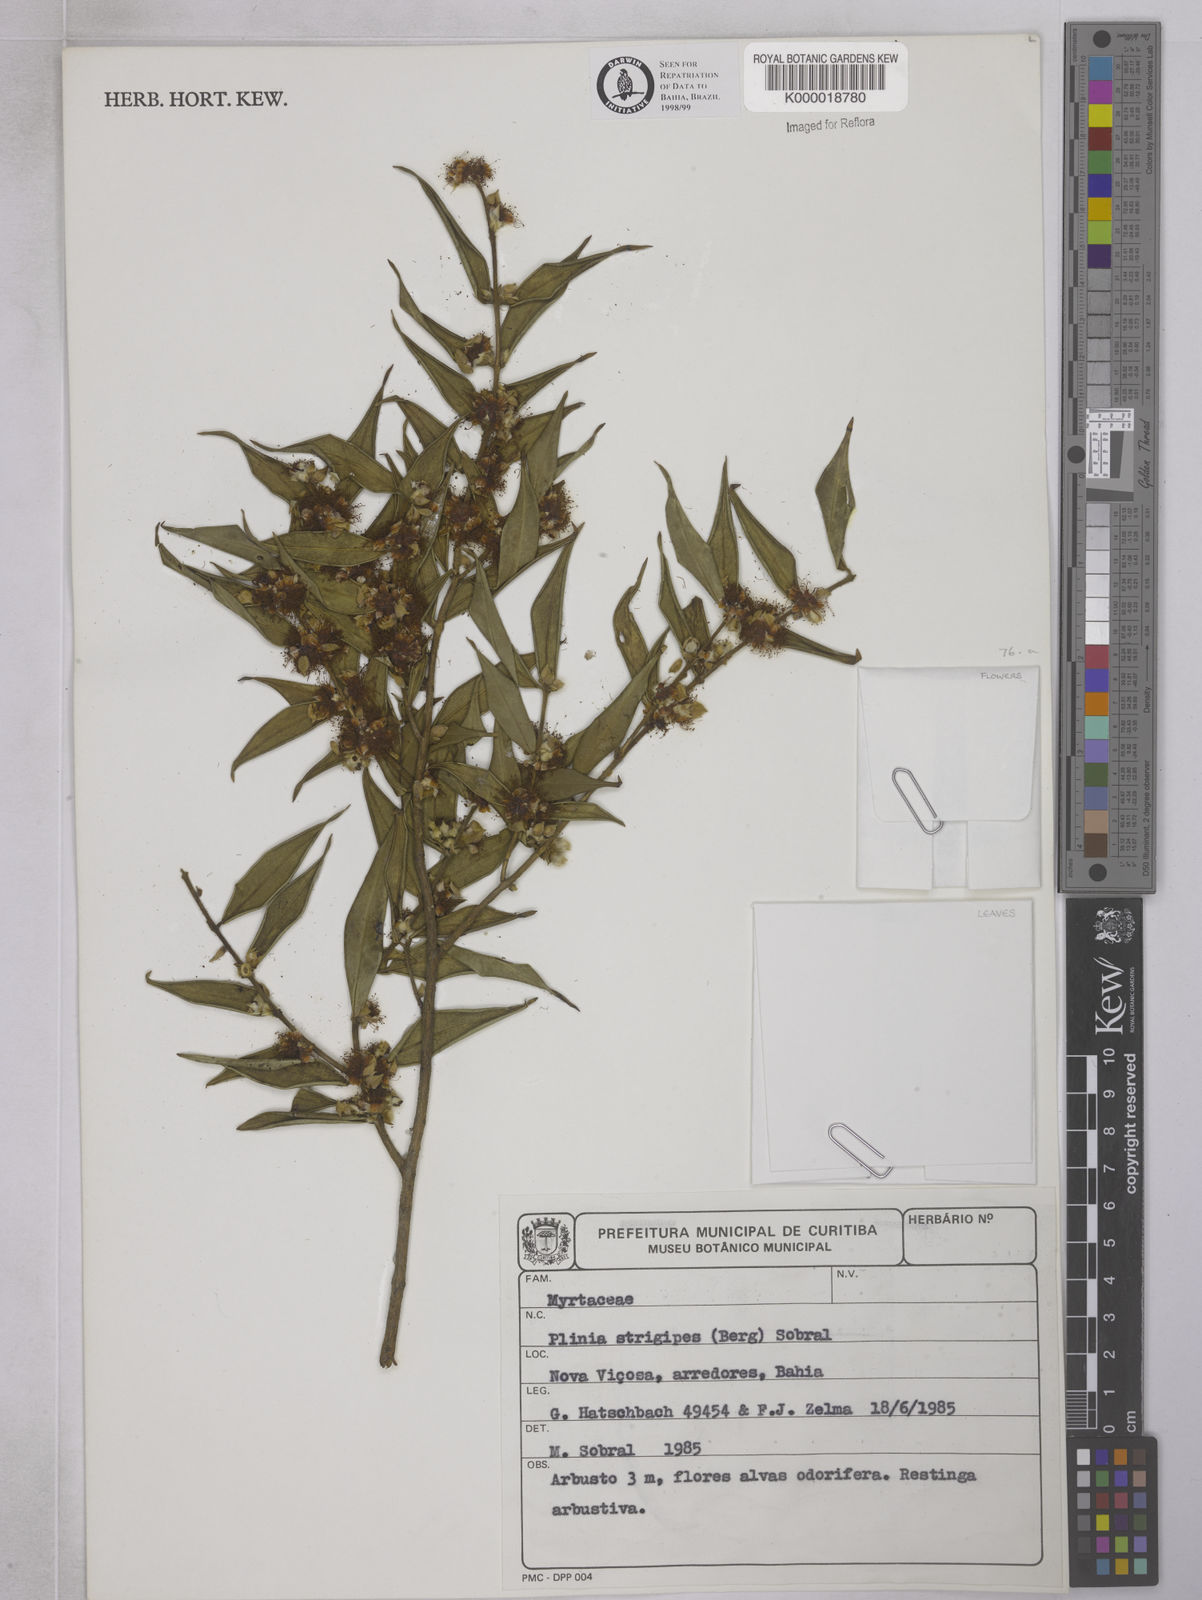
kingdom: Plantae
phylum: Tracheophyta
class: Magnoliopsida
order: Myrtales
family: Myrtaceae
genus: Myrciaria
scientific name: Myrciaria strigipes
